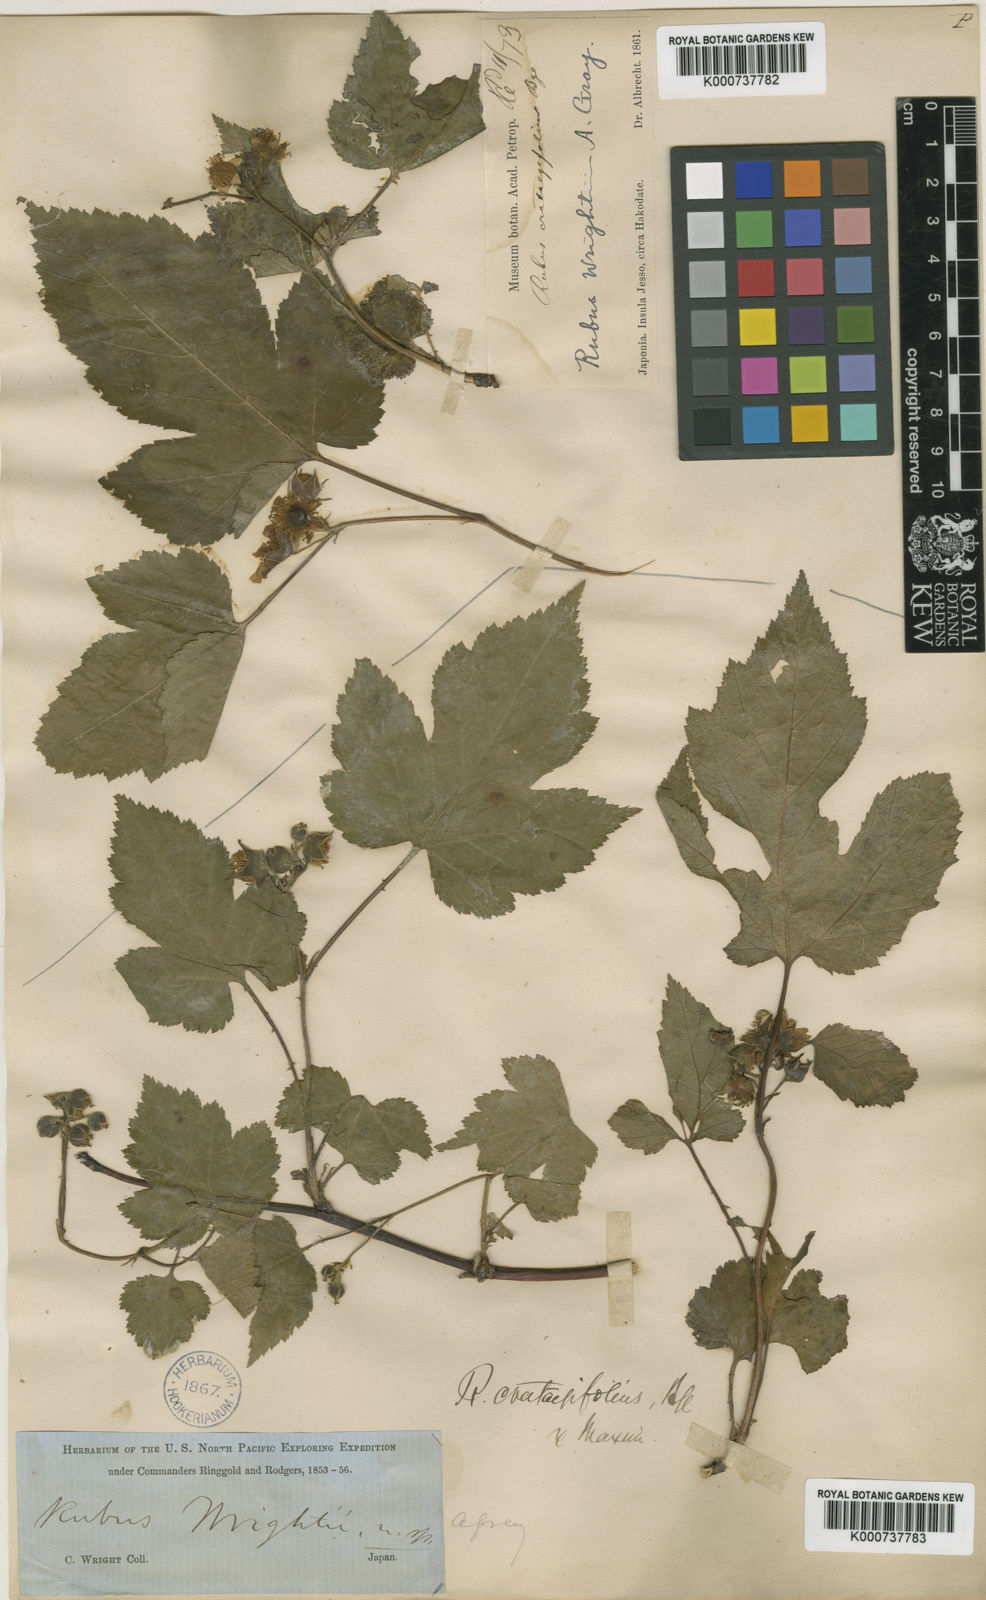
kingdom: Plantae
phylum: Tracheophyta
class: Magnoliopsida
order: Rosales
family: Rosaceae
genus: Rubus
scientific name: Rubus crataegifolius
